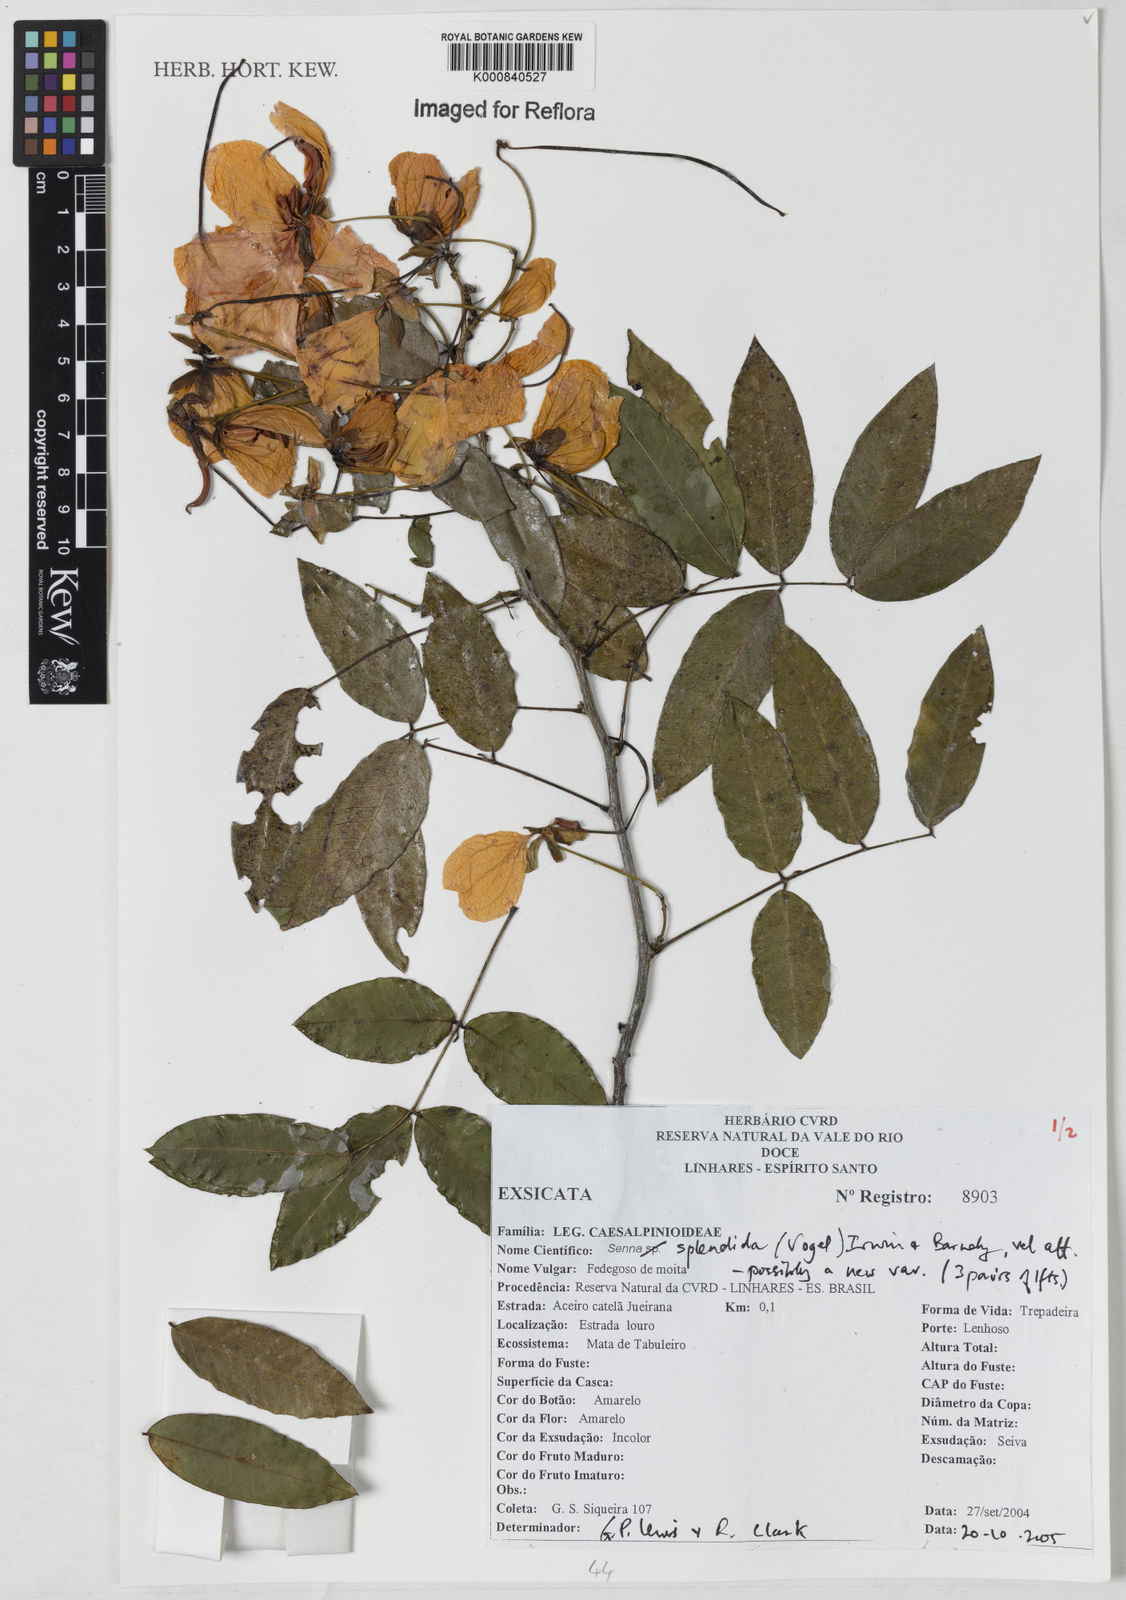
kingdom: Plantae
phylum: Tracheophyta
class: Magnoliopsida
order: Fabales
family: Fabaceae
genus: Senna
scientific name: Senna splendida
